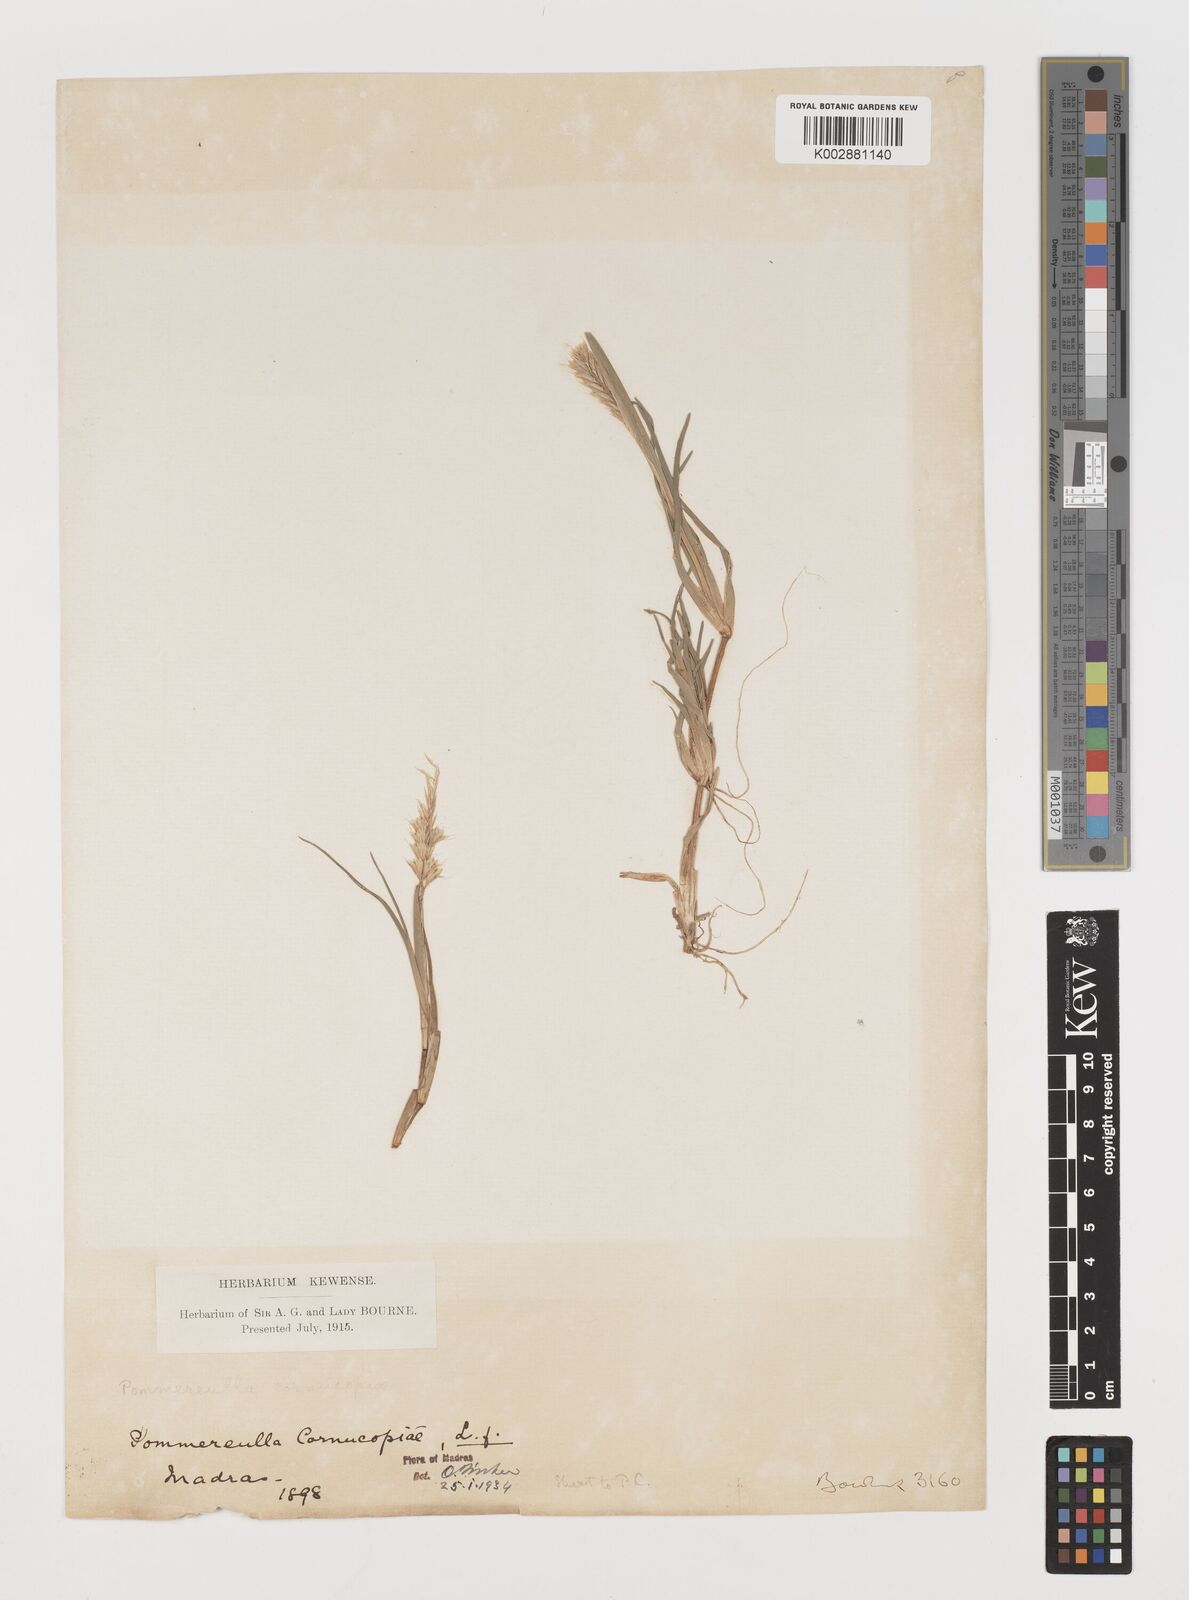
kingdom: Plantae
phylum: Tracheophyta
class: Liliopsida
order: Poales
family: Poaceae
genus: Pommereulla
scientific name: Pommereulla cornucopiae
